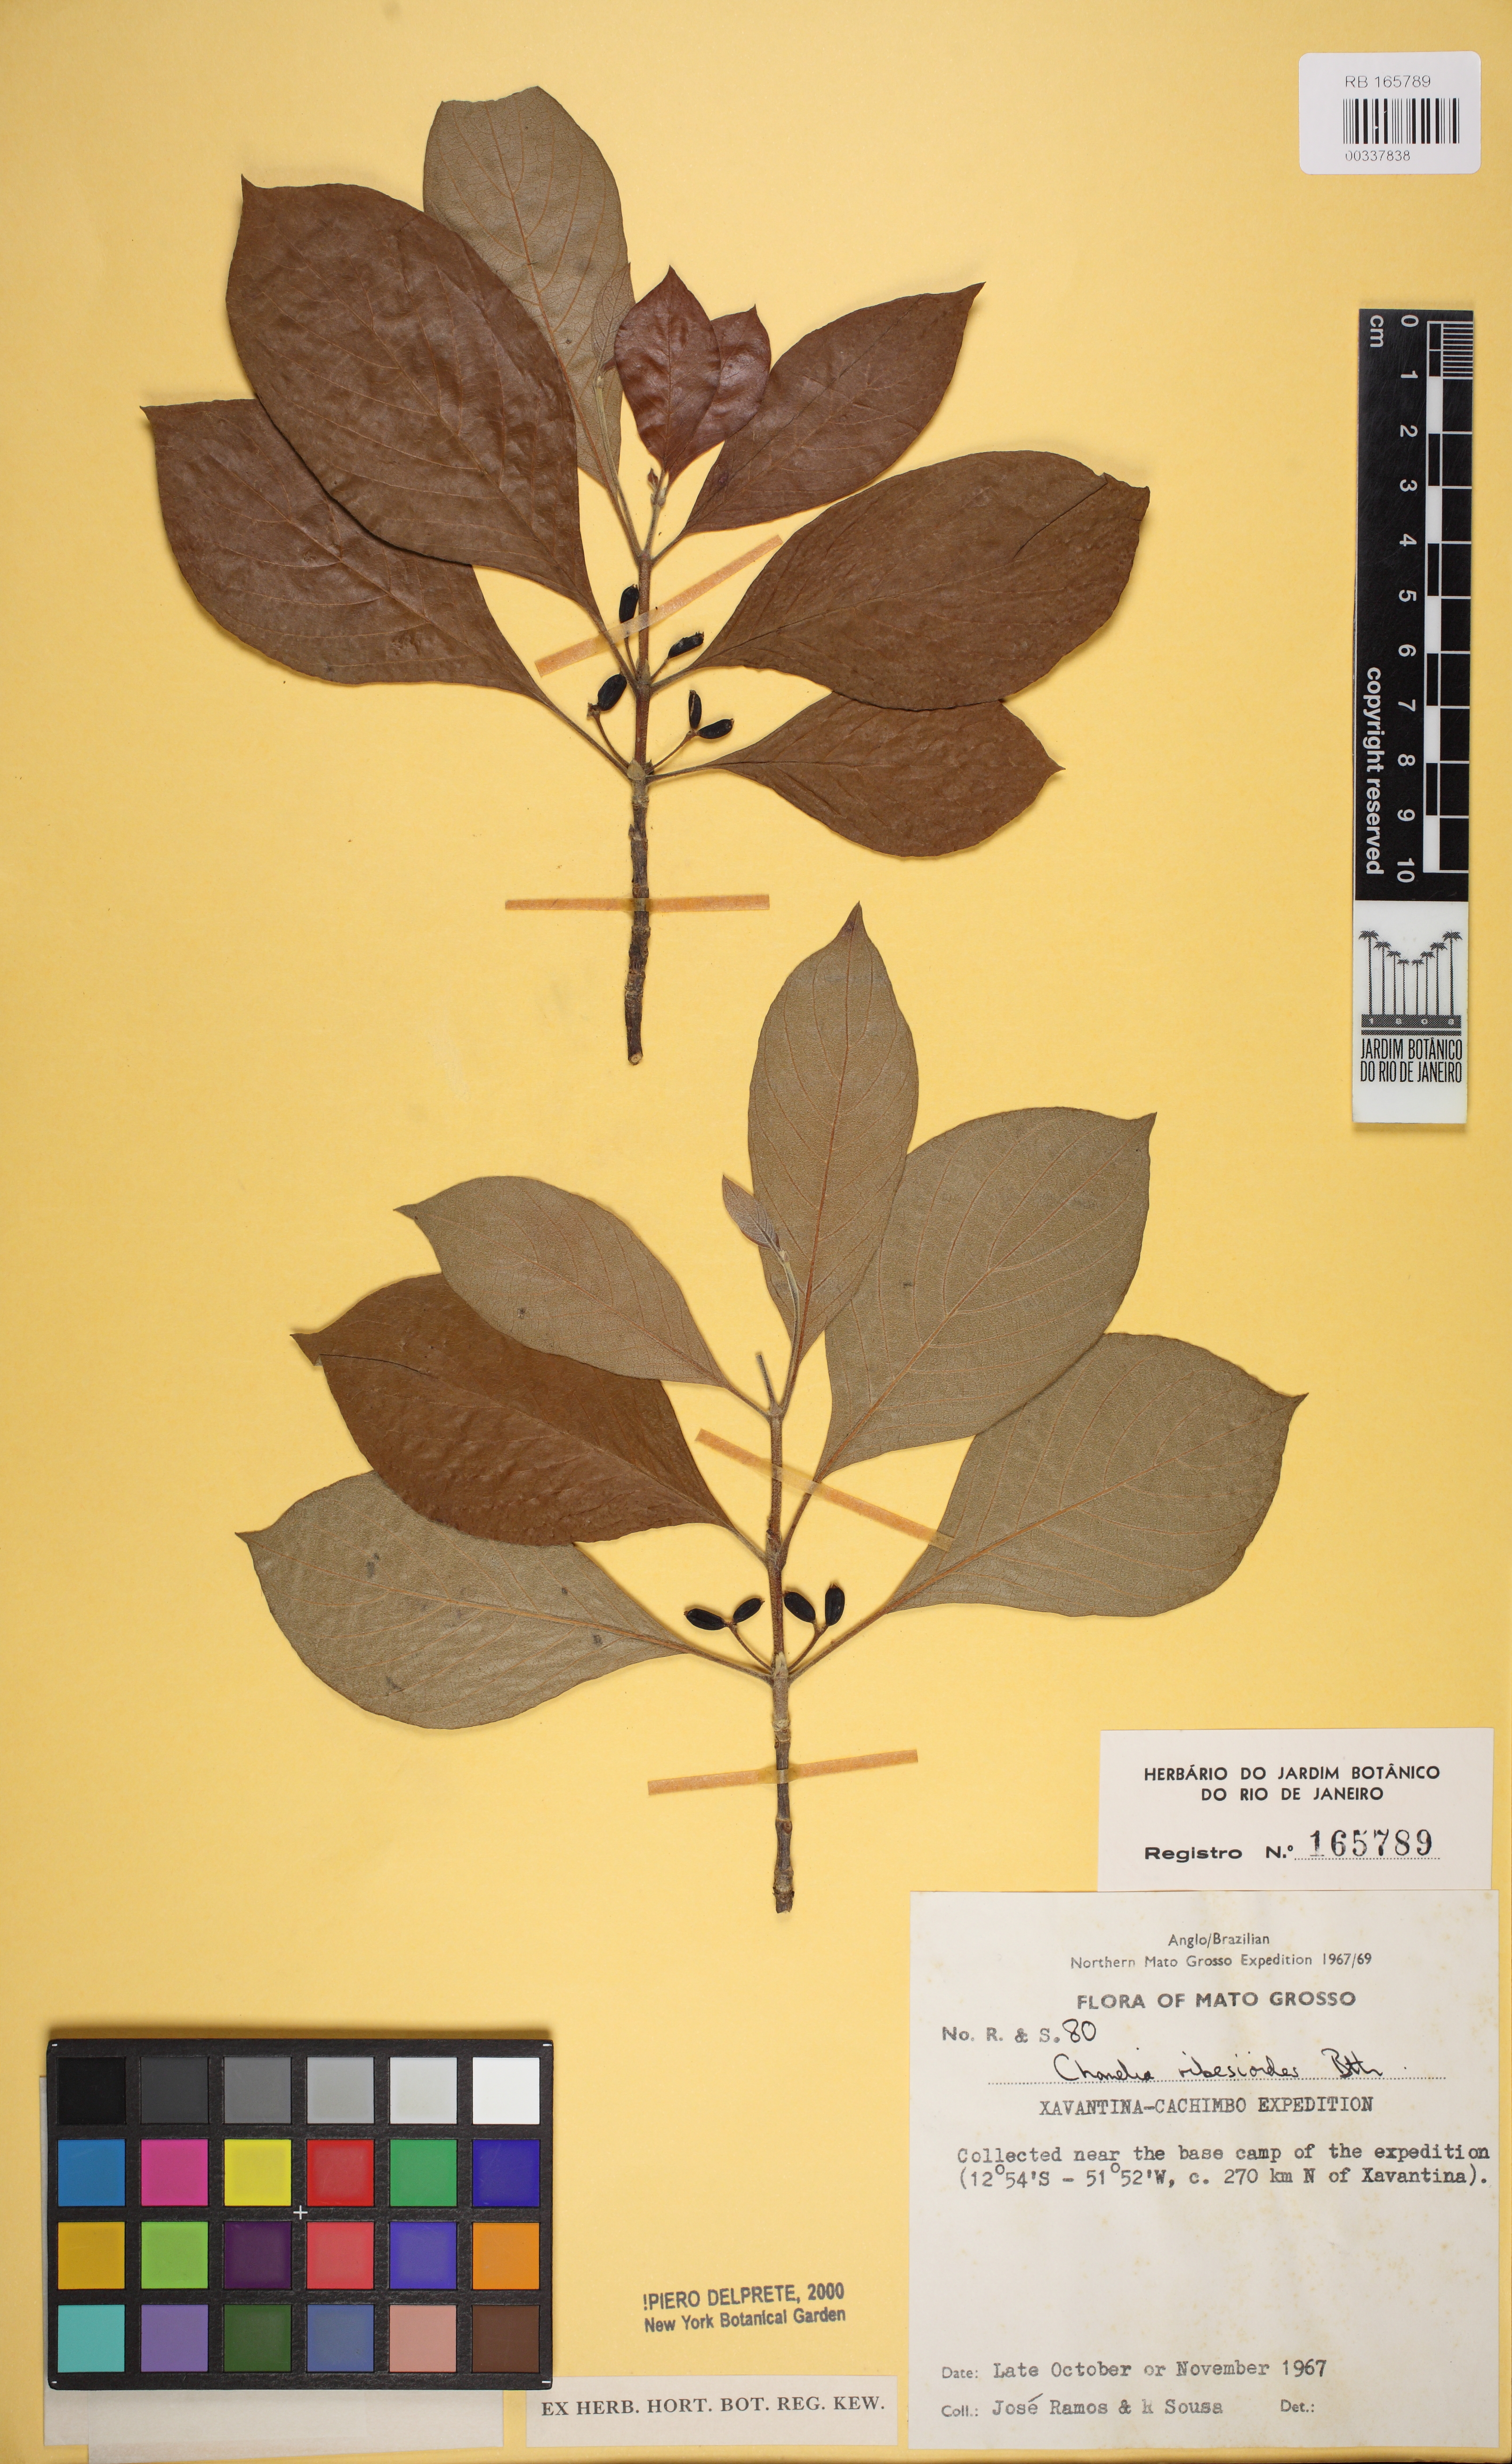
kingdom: Plantae
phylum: Tracheophyta
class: Magnoliopsida
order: Gentianales
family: Rubiaceae
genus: Chomelia
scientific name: Chomelia ribesioides
